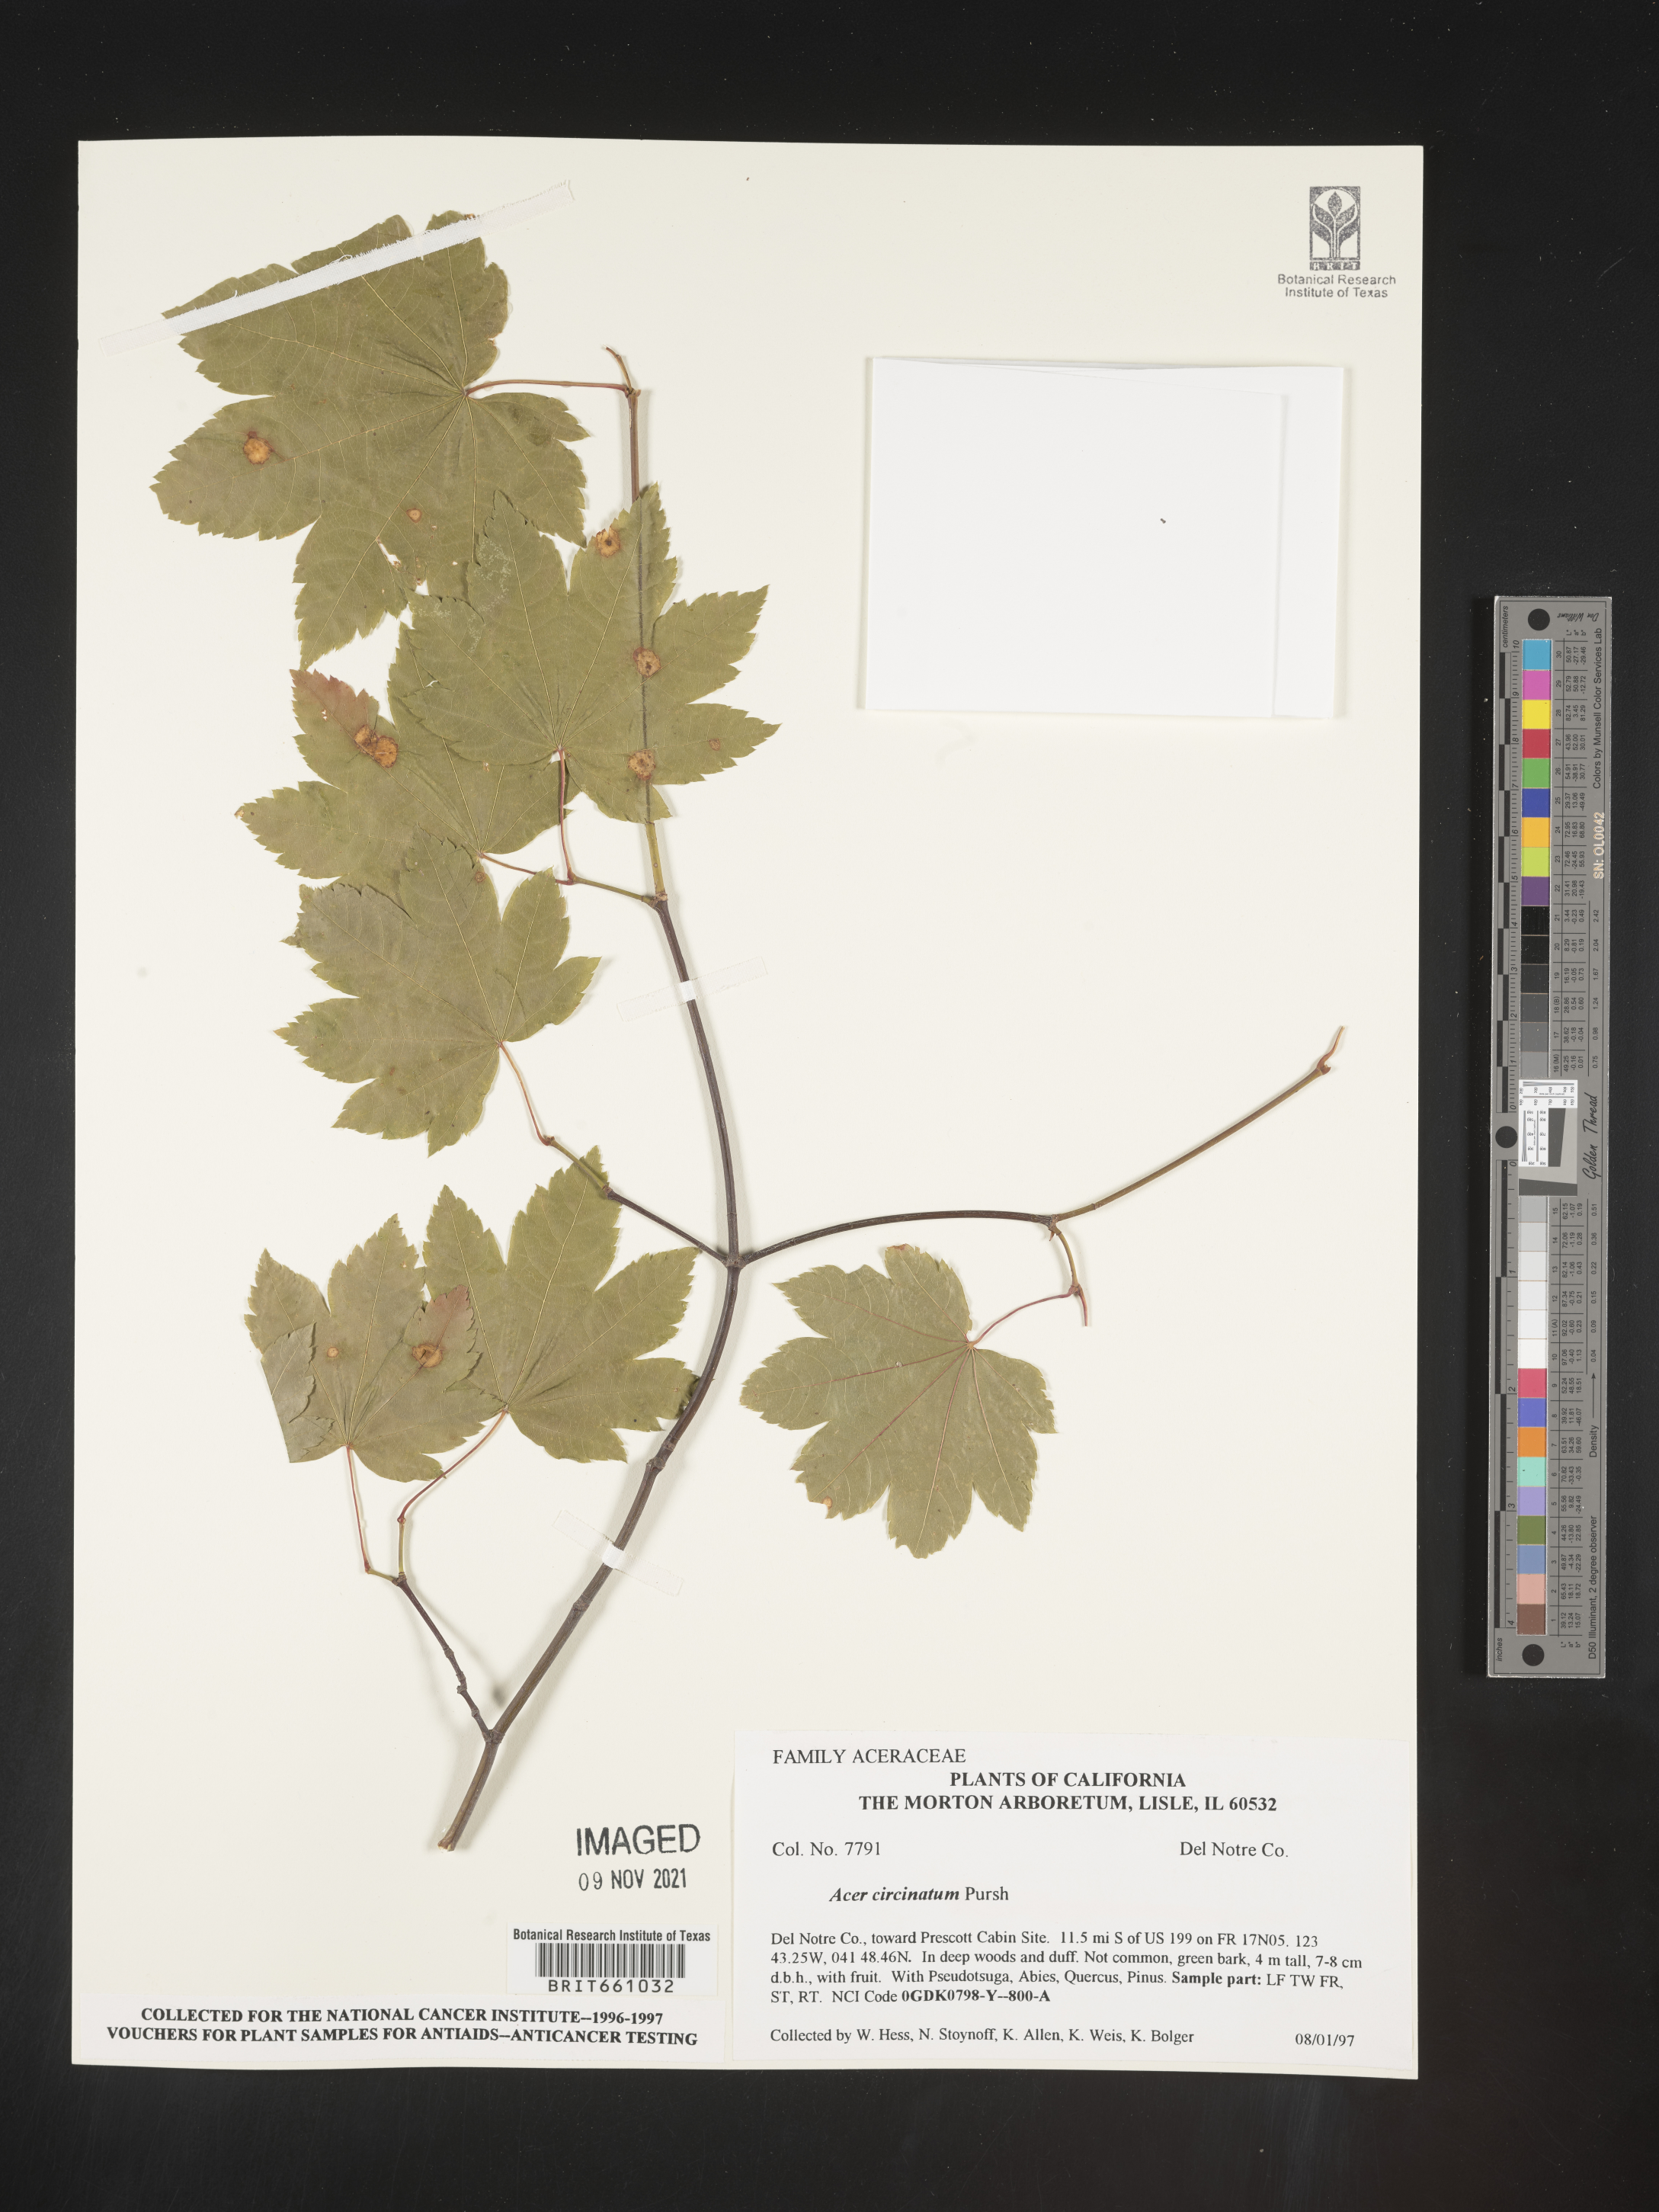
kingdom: Plantae
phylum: Tracheophyta
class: Magnoliopsida
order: Sapindales
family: Sapindaceae
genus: Acer
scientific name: Acer circinatum
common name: Vine maple
